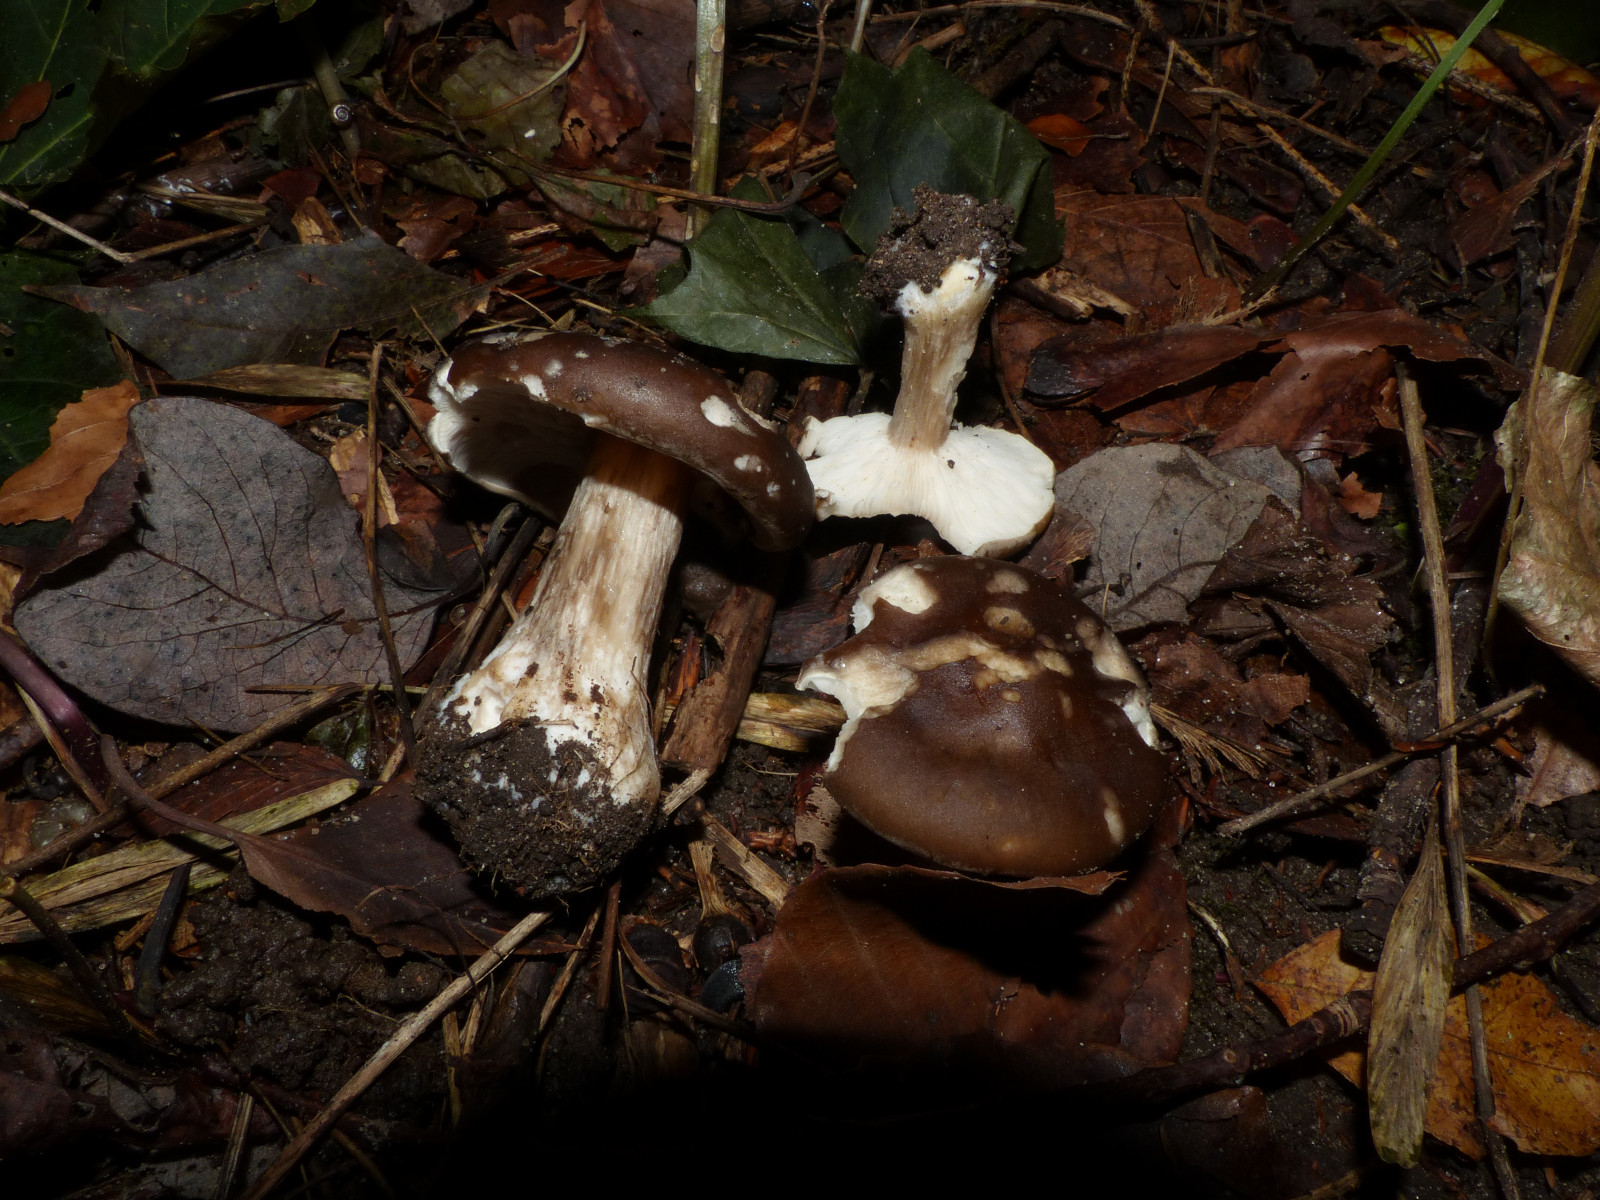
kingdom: Fungi
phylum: Basidiomycota
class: Agaricomycetes
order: Agaricales
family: Tricholomataceae
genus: Melanoleuca
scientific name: Melanoleuca grammopodia
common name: stribestokket munkehat
